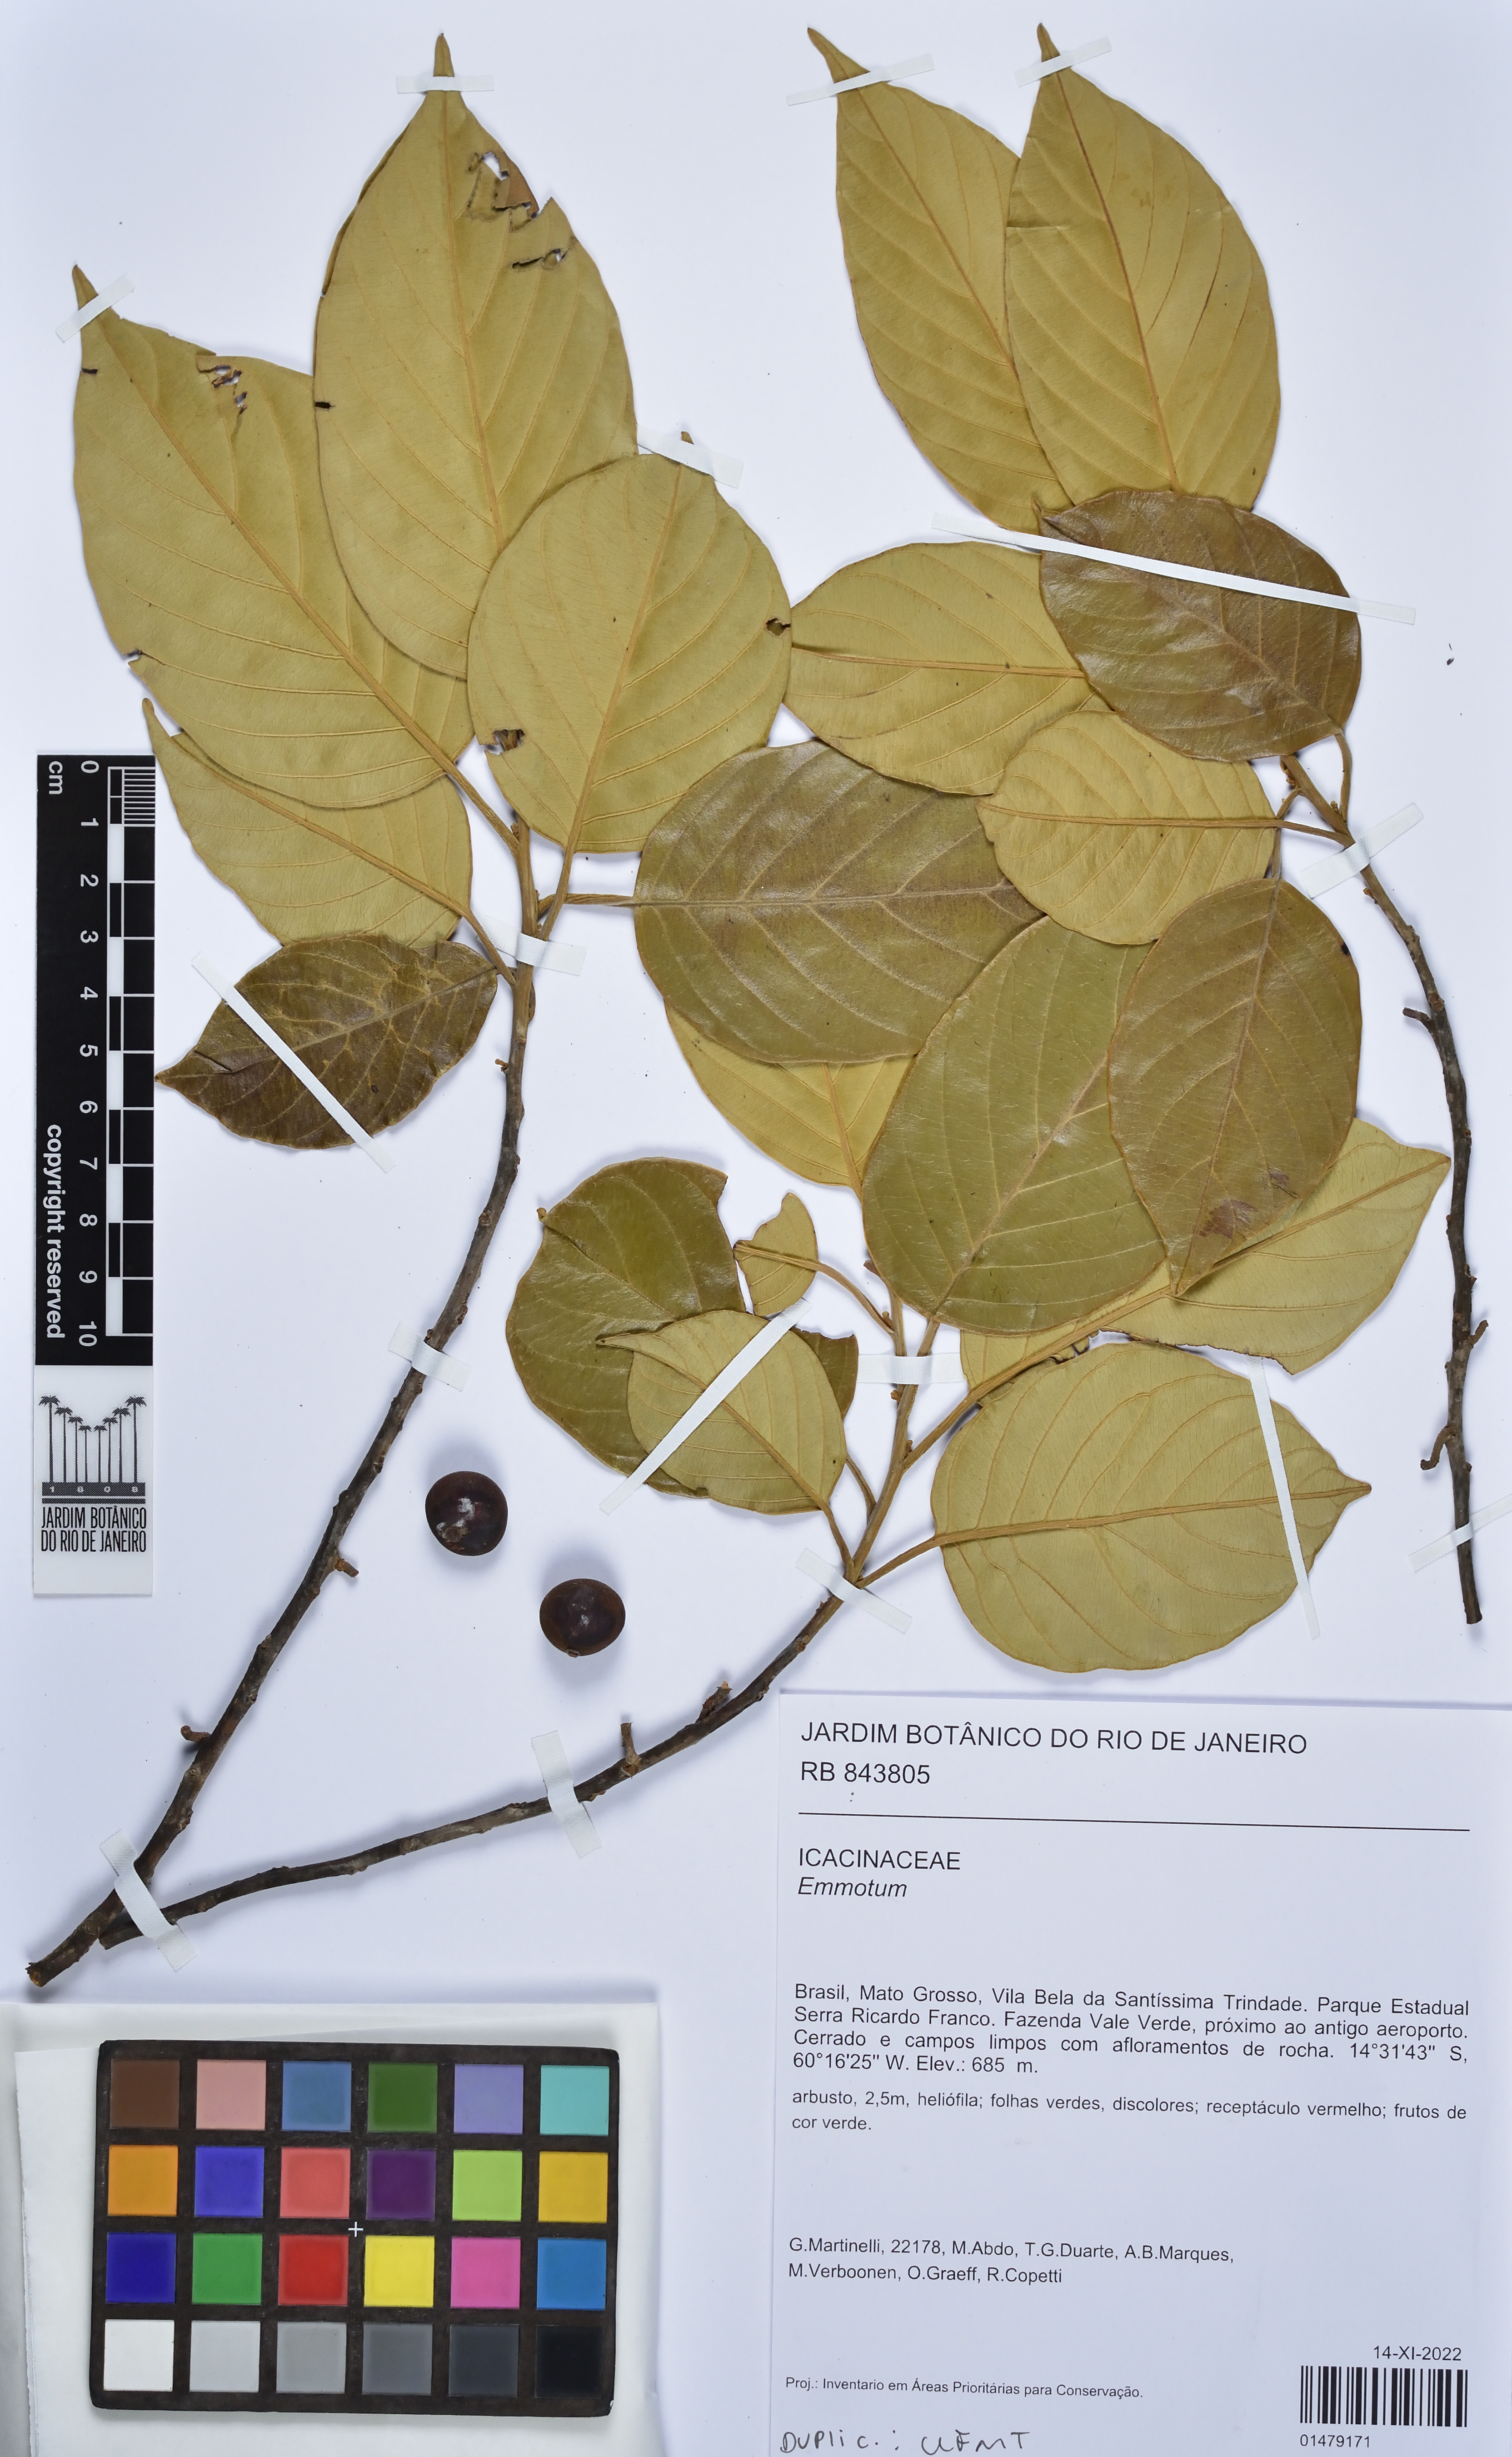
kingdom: Plantae
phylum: Tracheophyta
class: Magnoliopsida
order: Icacinales
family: Icacinaceae
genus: Emmotum
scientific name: Emmotum
